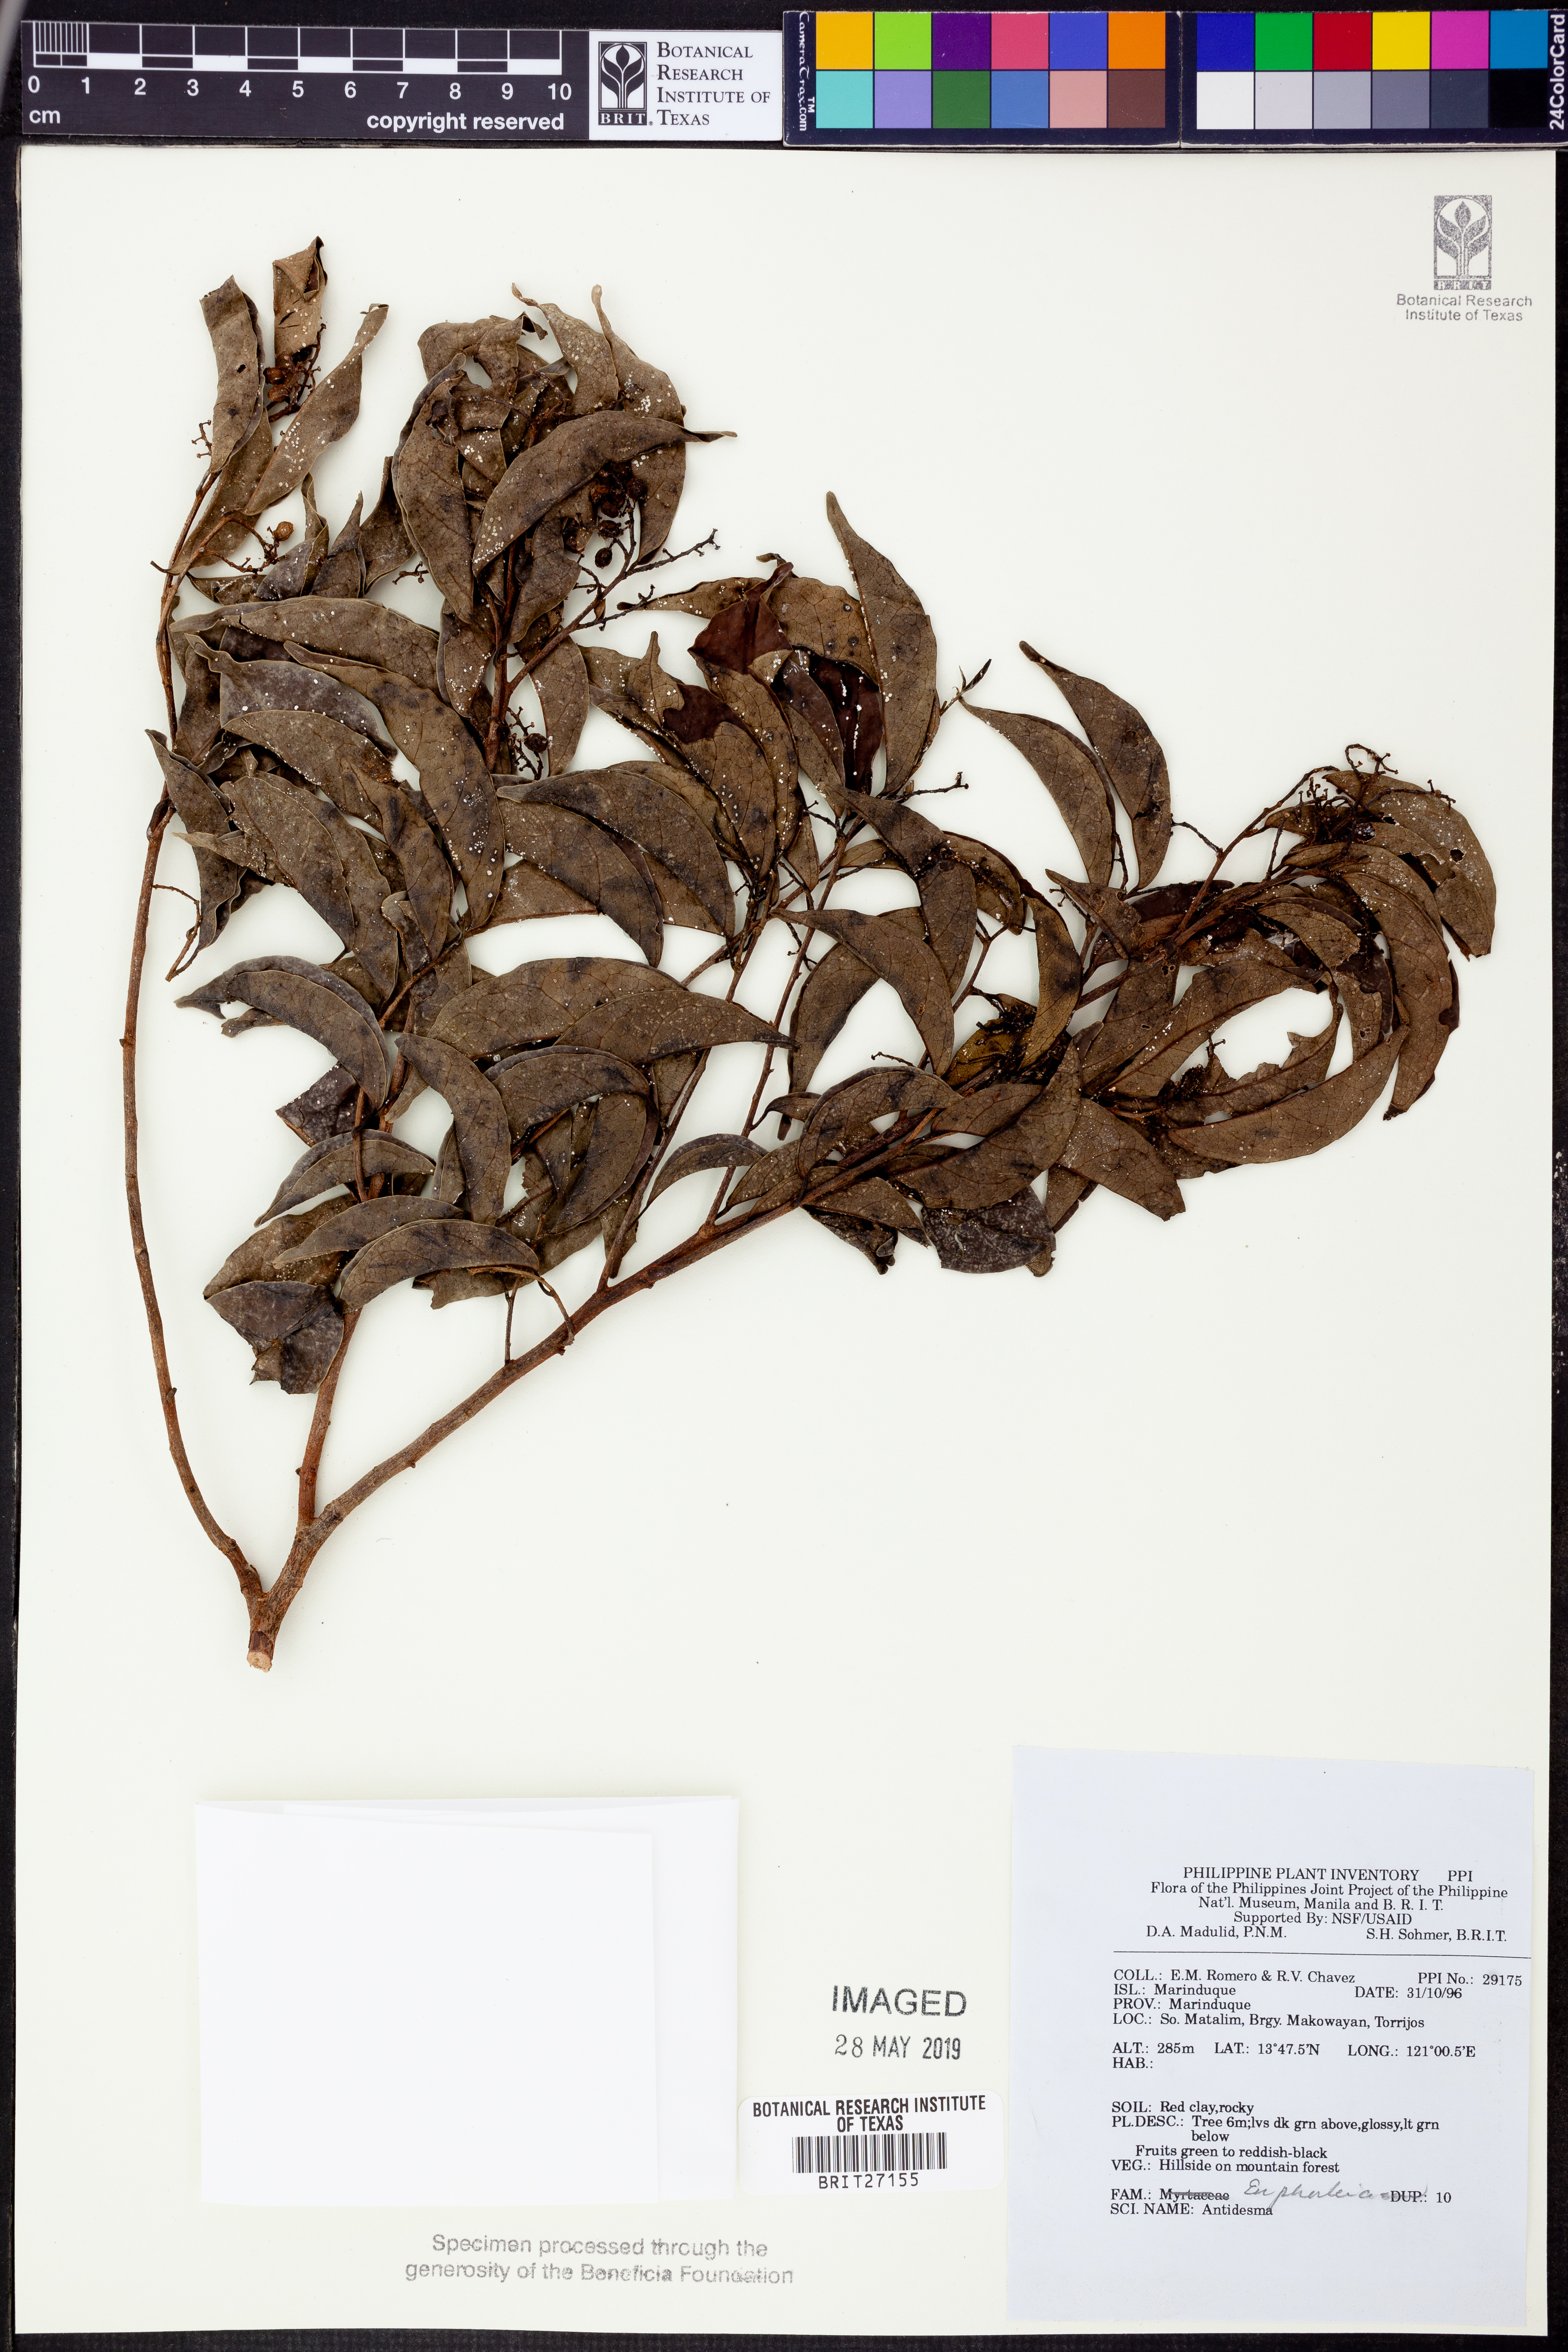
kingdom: Plantae
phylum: Tracheophyta
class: Magnoliopsida
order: Malpighiales
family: Phyllanthaceae
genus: Antidesma
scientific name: Antidesma
